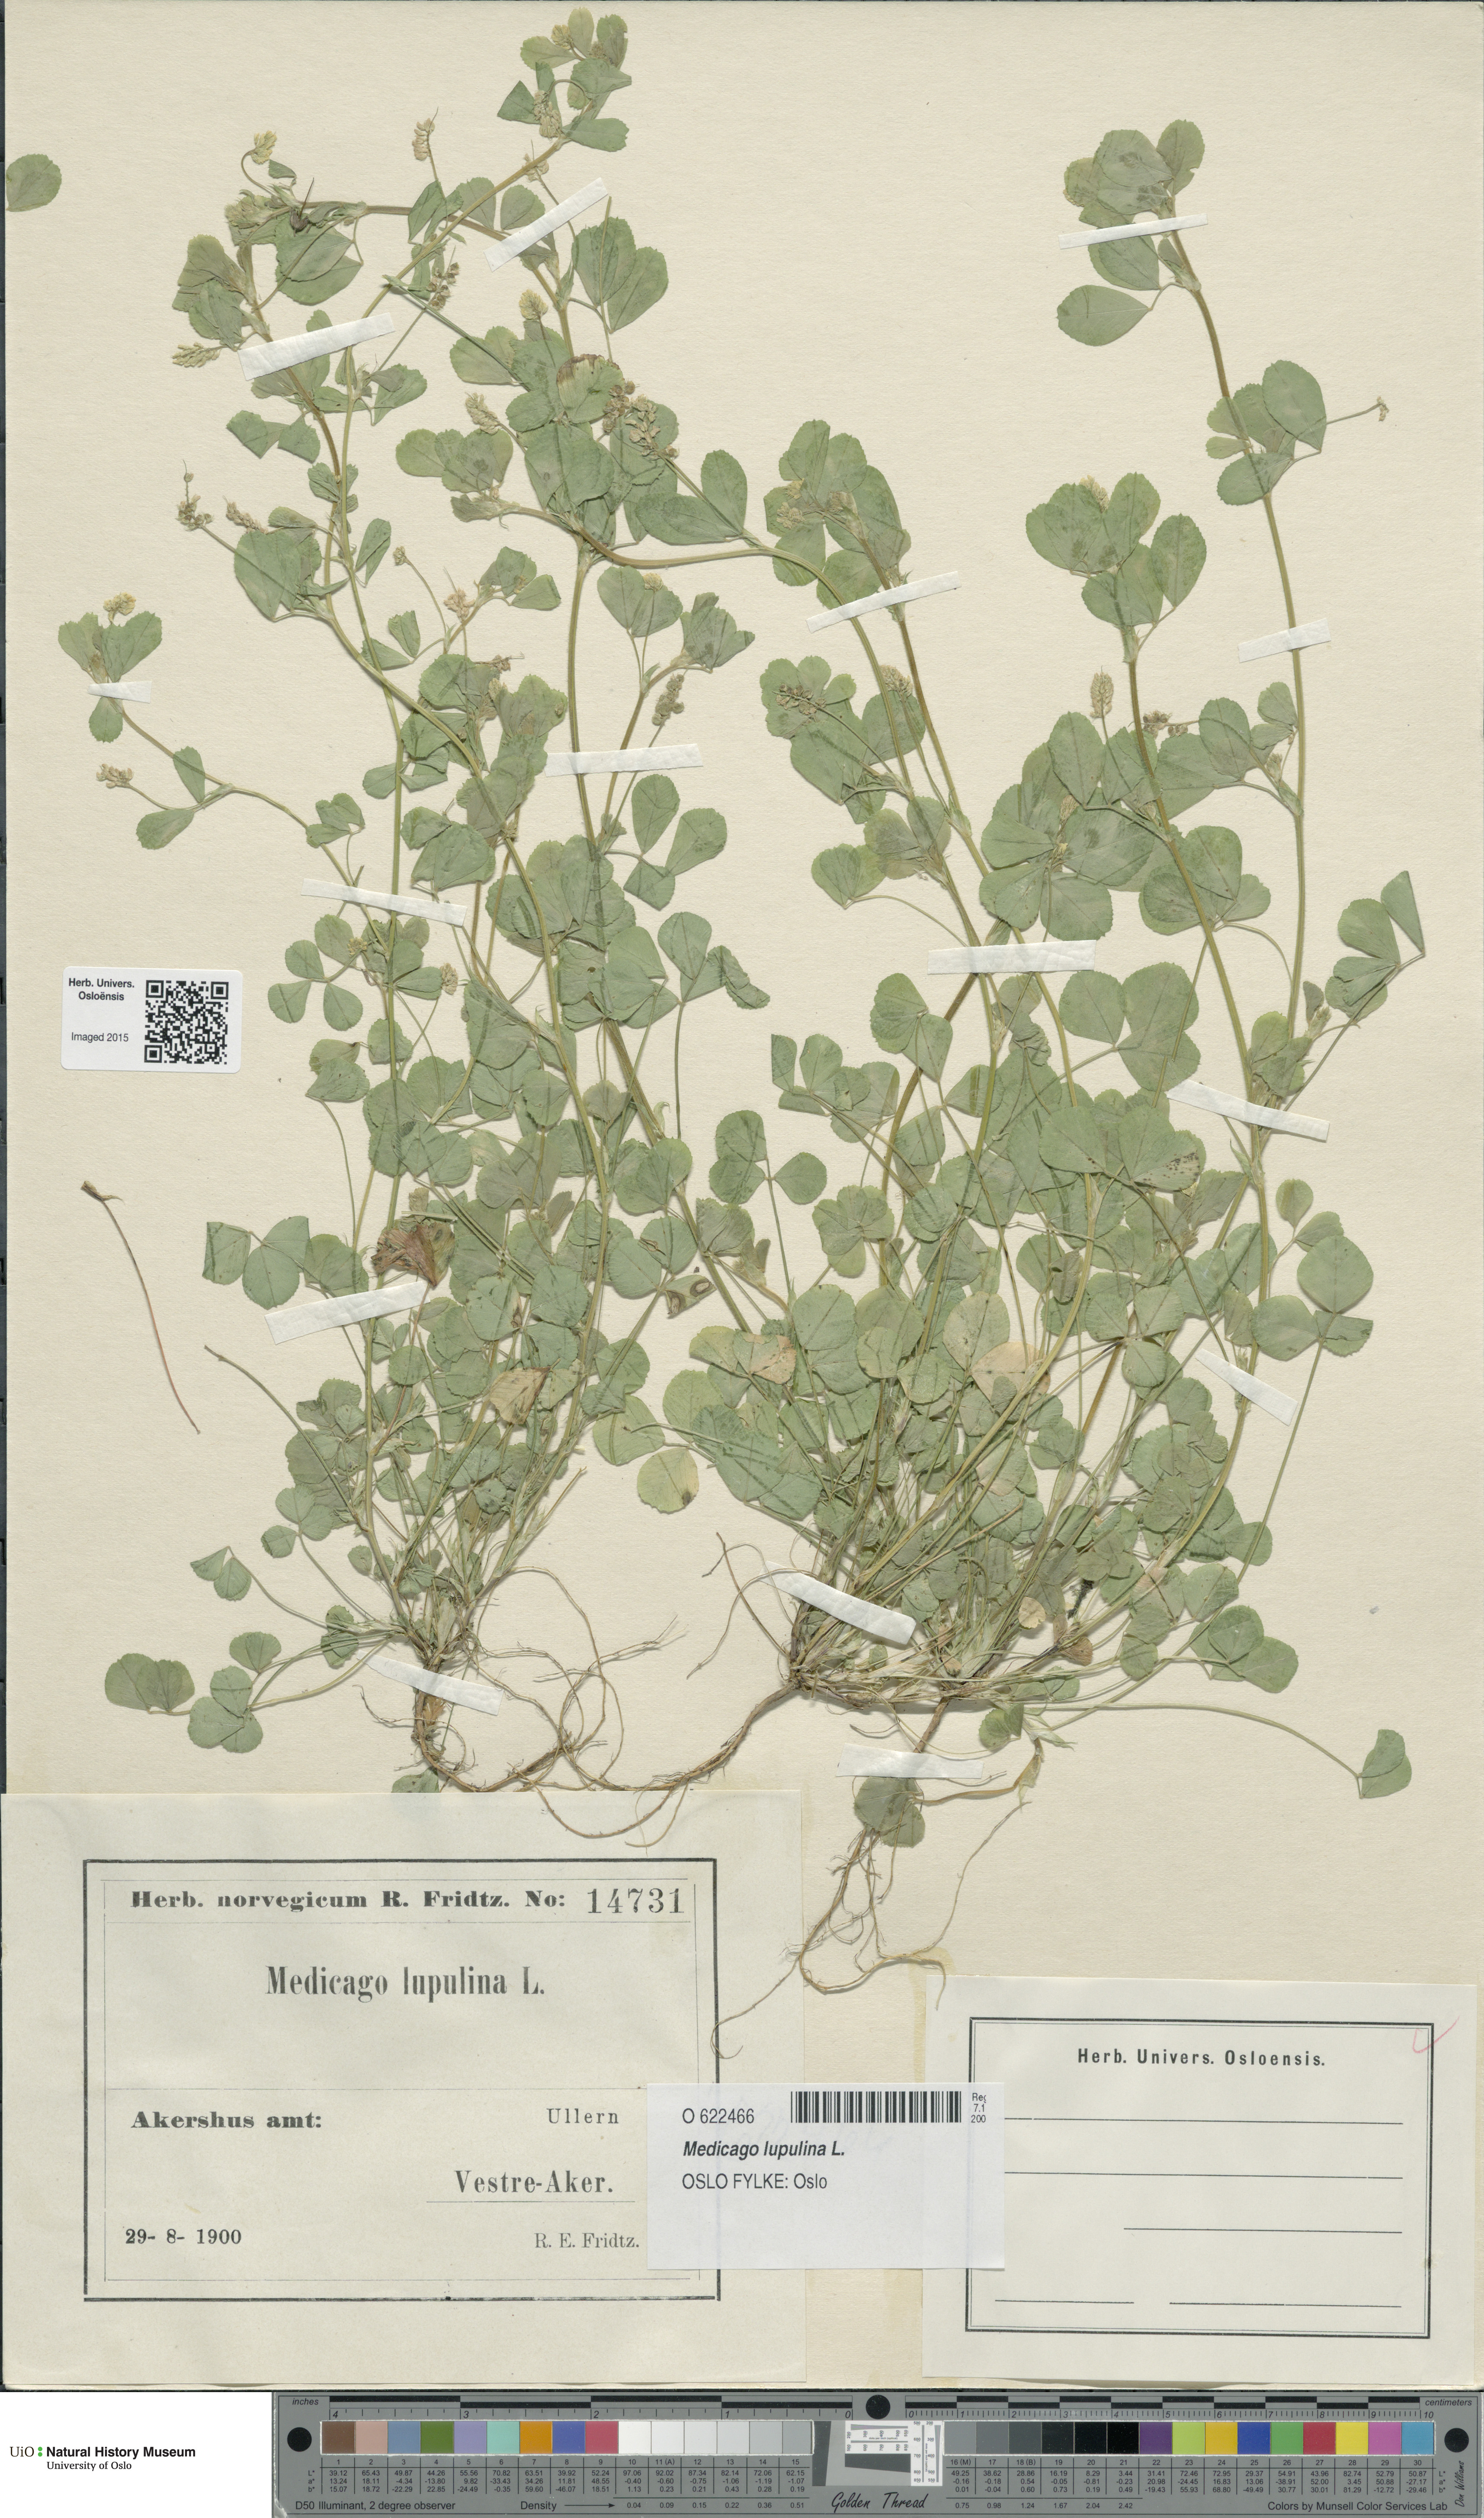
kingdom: Plantae
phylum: Tracheophyta
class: Magnoliopsida
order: Fabales
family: Fabaceae
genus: Medicago
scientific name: Medicago lupulina
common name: Black medick
